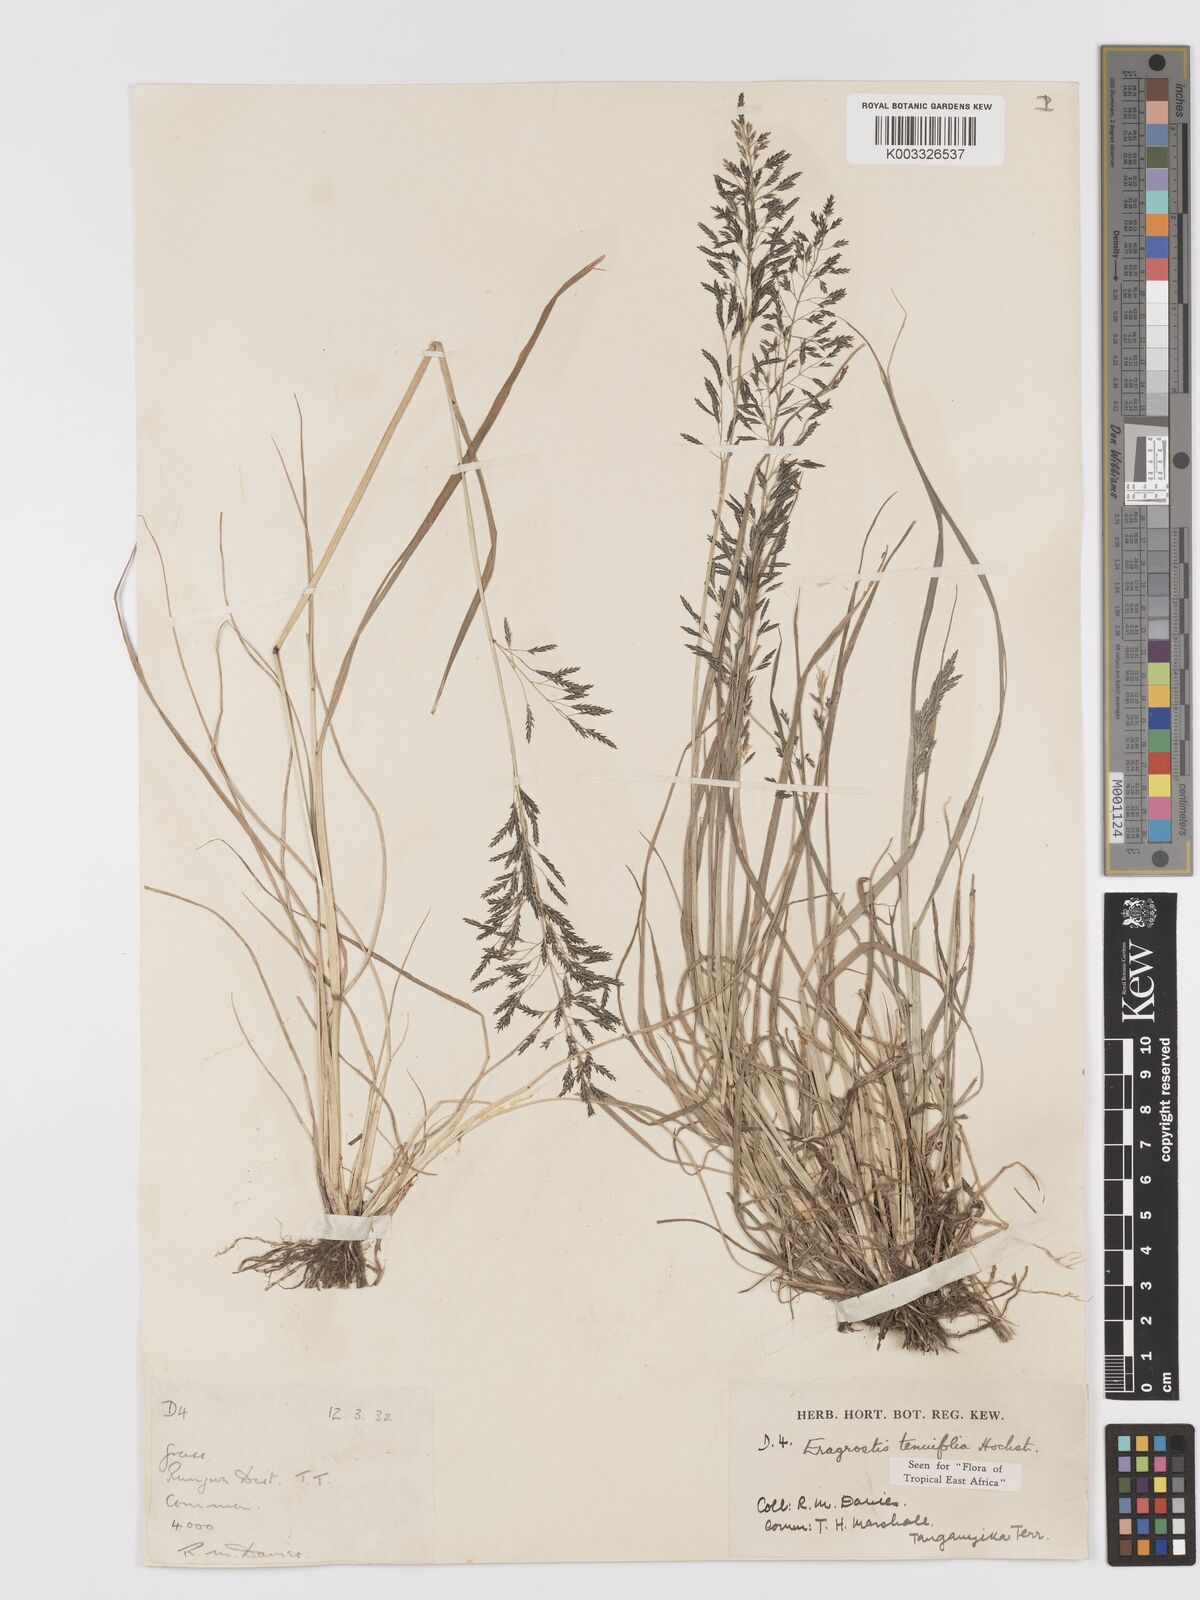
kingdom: Plantae
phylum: Tracheophyta
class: Liliopsida
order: Poales
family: Poaceae
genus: Eragrostis
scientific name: Eragrostis tenuifolia
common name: Elastic grass
